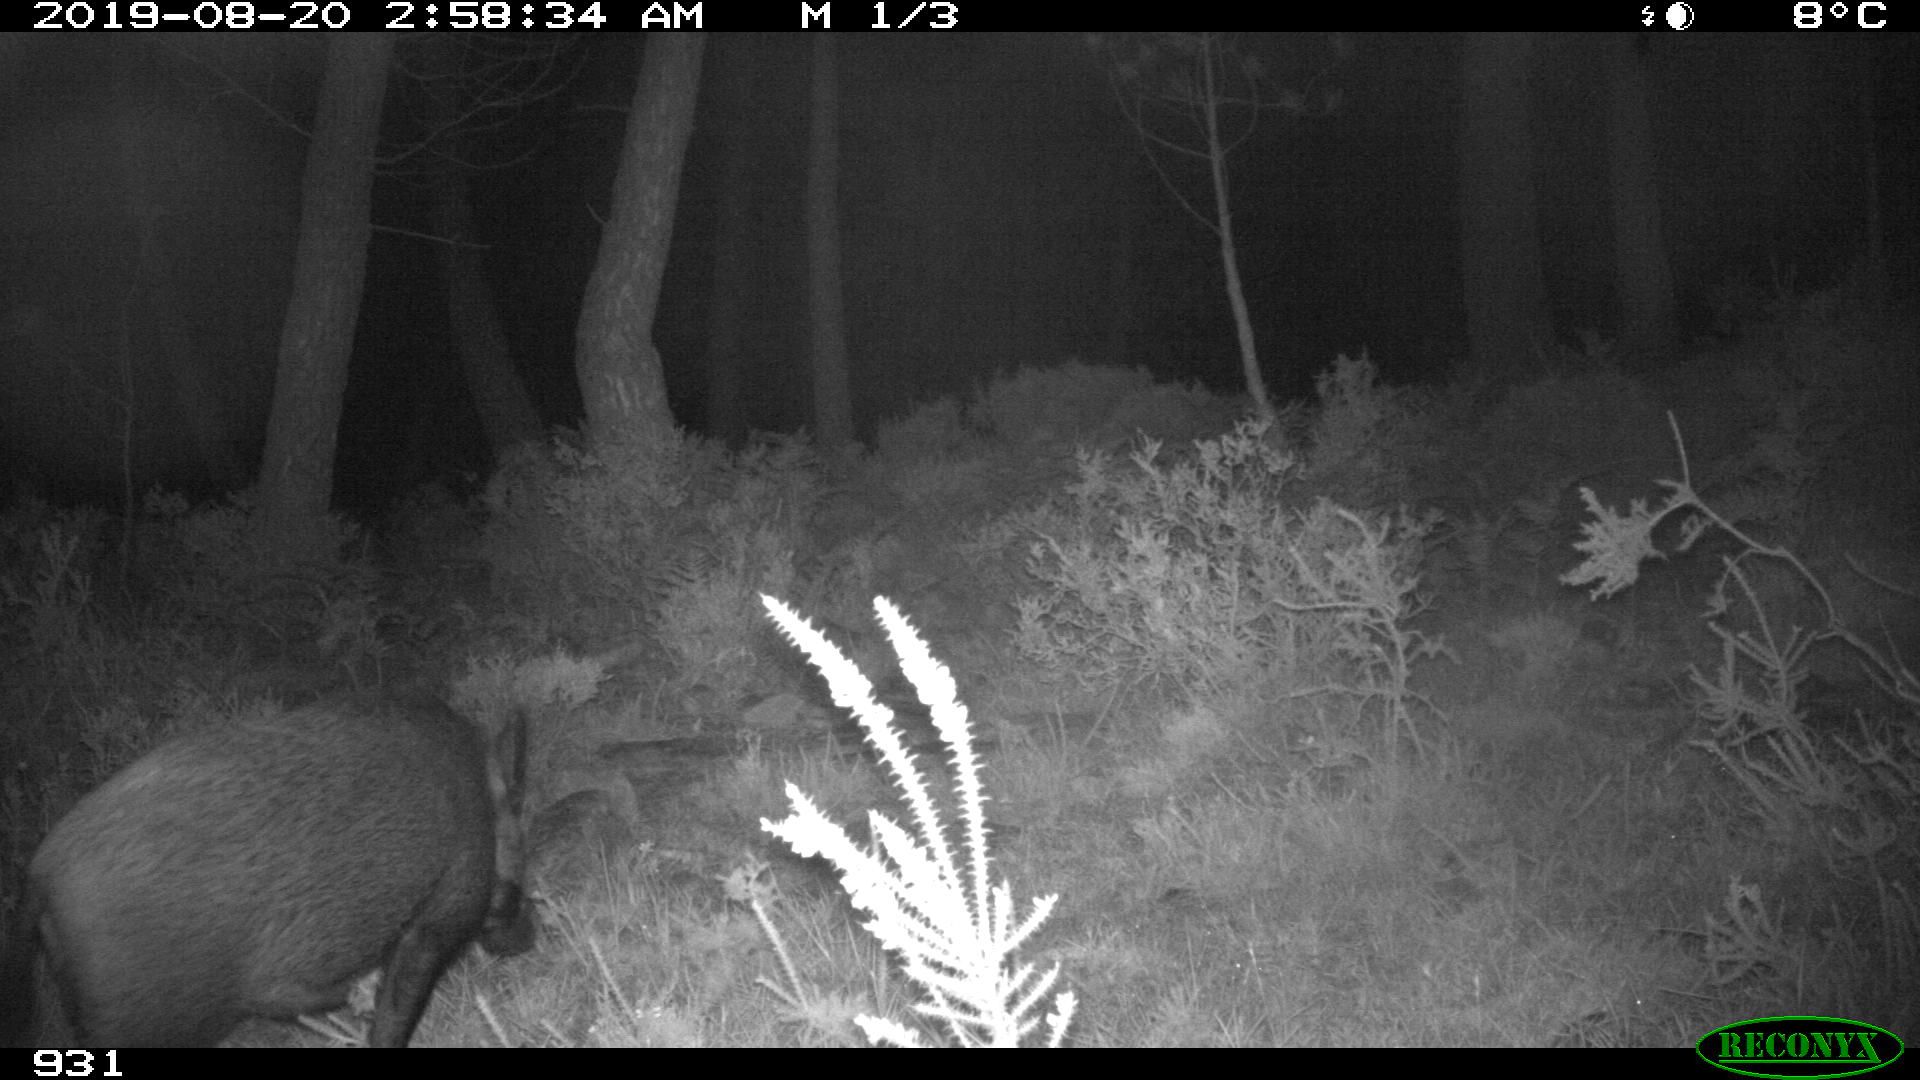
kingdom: Animalia
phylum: Chordata
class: Mammalia
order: Artiodactyla
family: Suidae
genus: Sus
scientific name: Sus scrofa
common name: Wild boar
